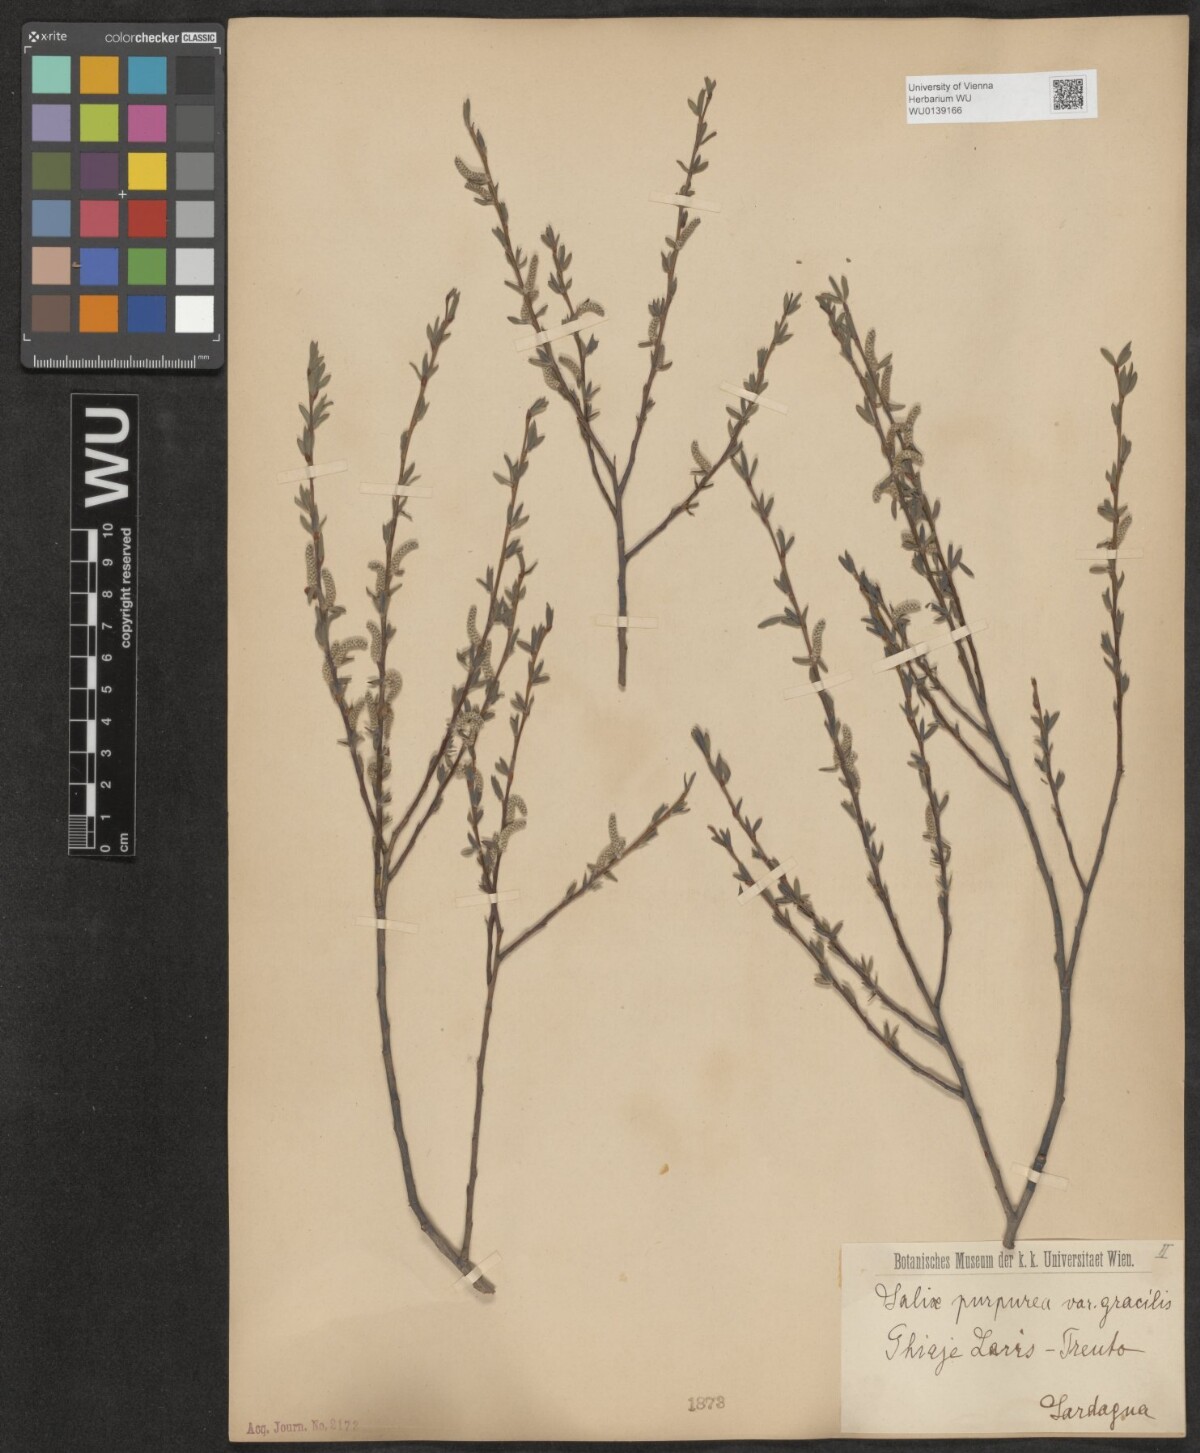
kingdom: Plantae
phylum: Tracheophyta
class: Magnoliopsida
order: Malpighiales
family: Salicaceae
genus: Salix
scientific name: Salix purpurea
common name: Purple willow
